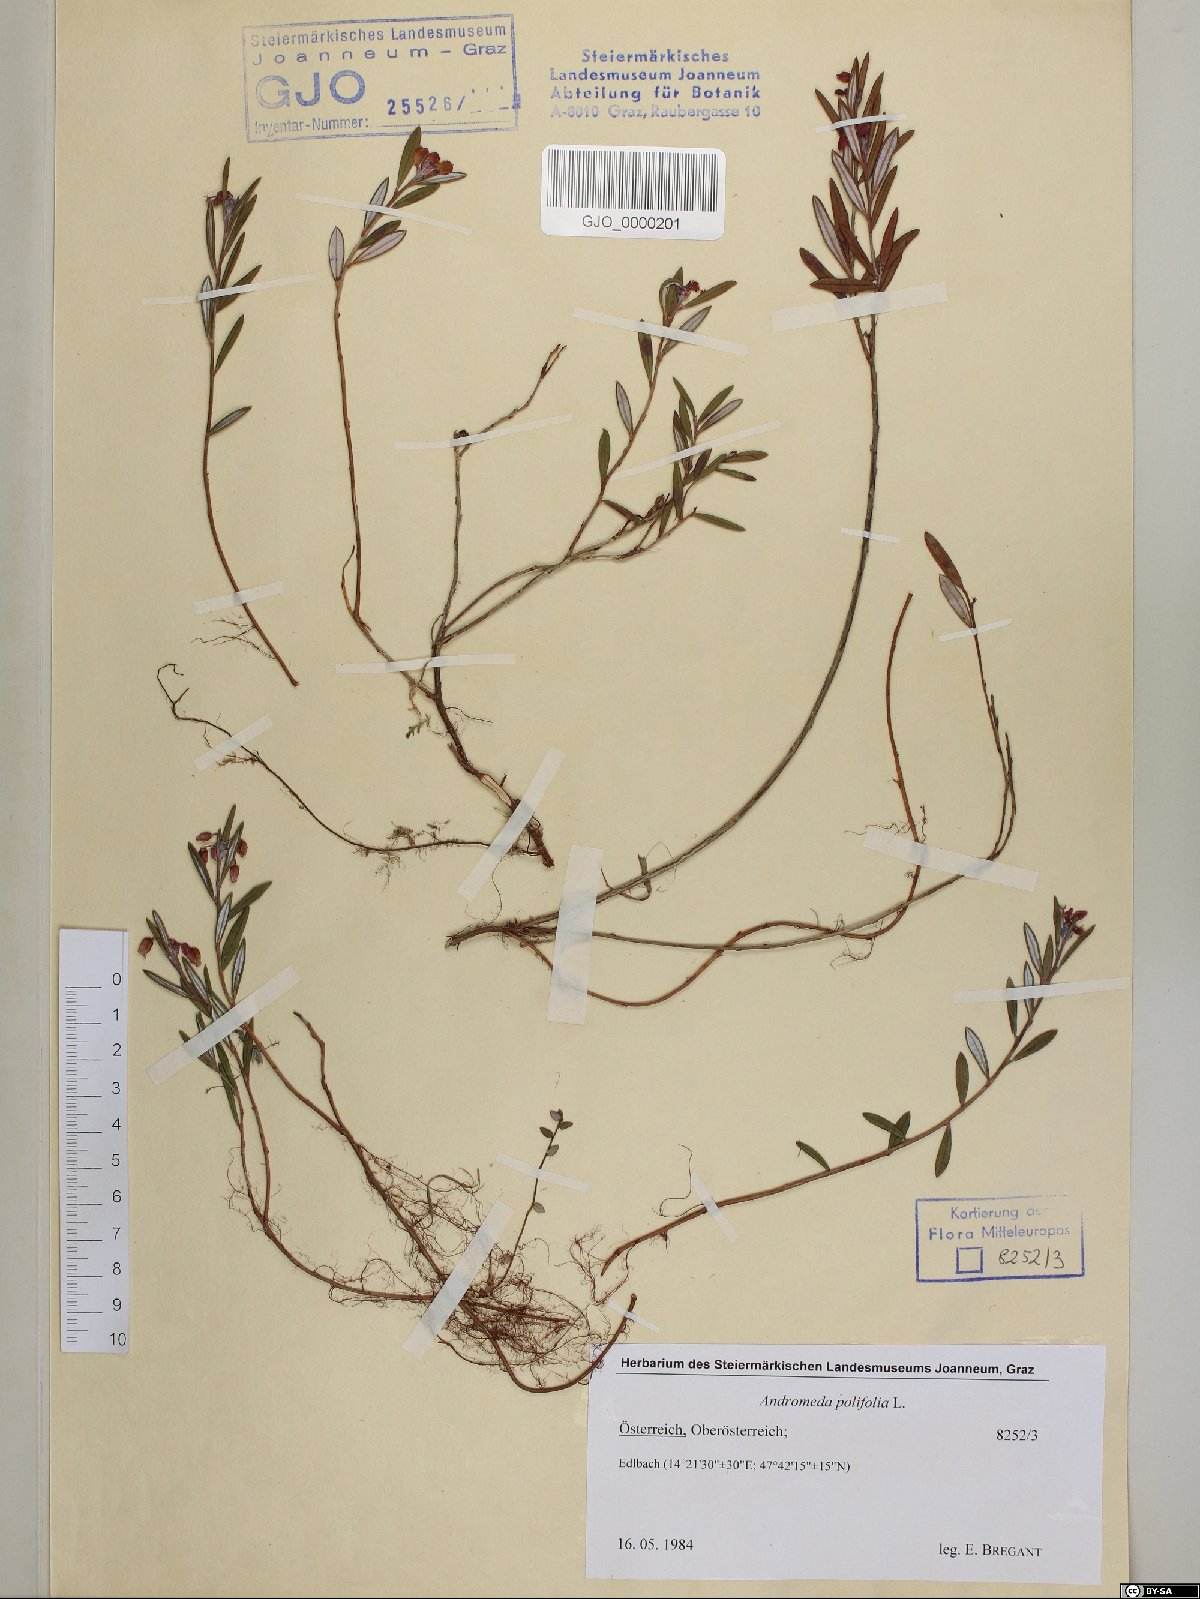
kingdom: Plantae
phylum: Tracheophyta
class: Magnoliopsida
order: Ericales
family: Ericaceae
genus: Andromeda
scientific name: Andromeda polifolia
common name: Bog-rosemary
